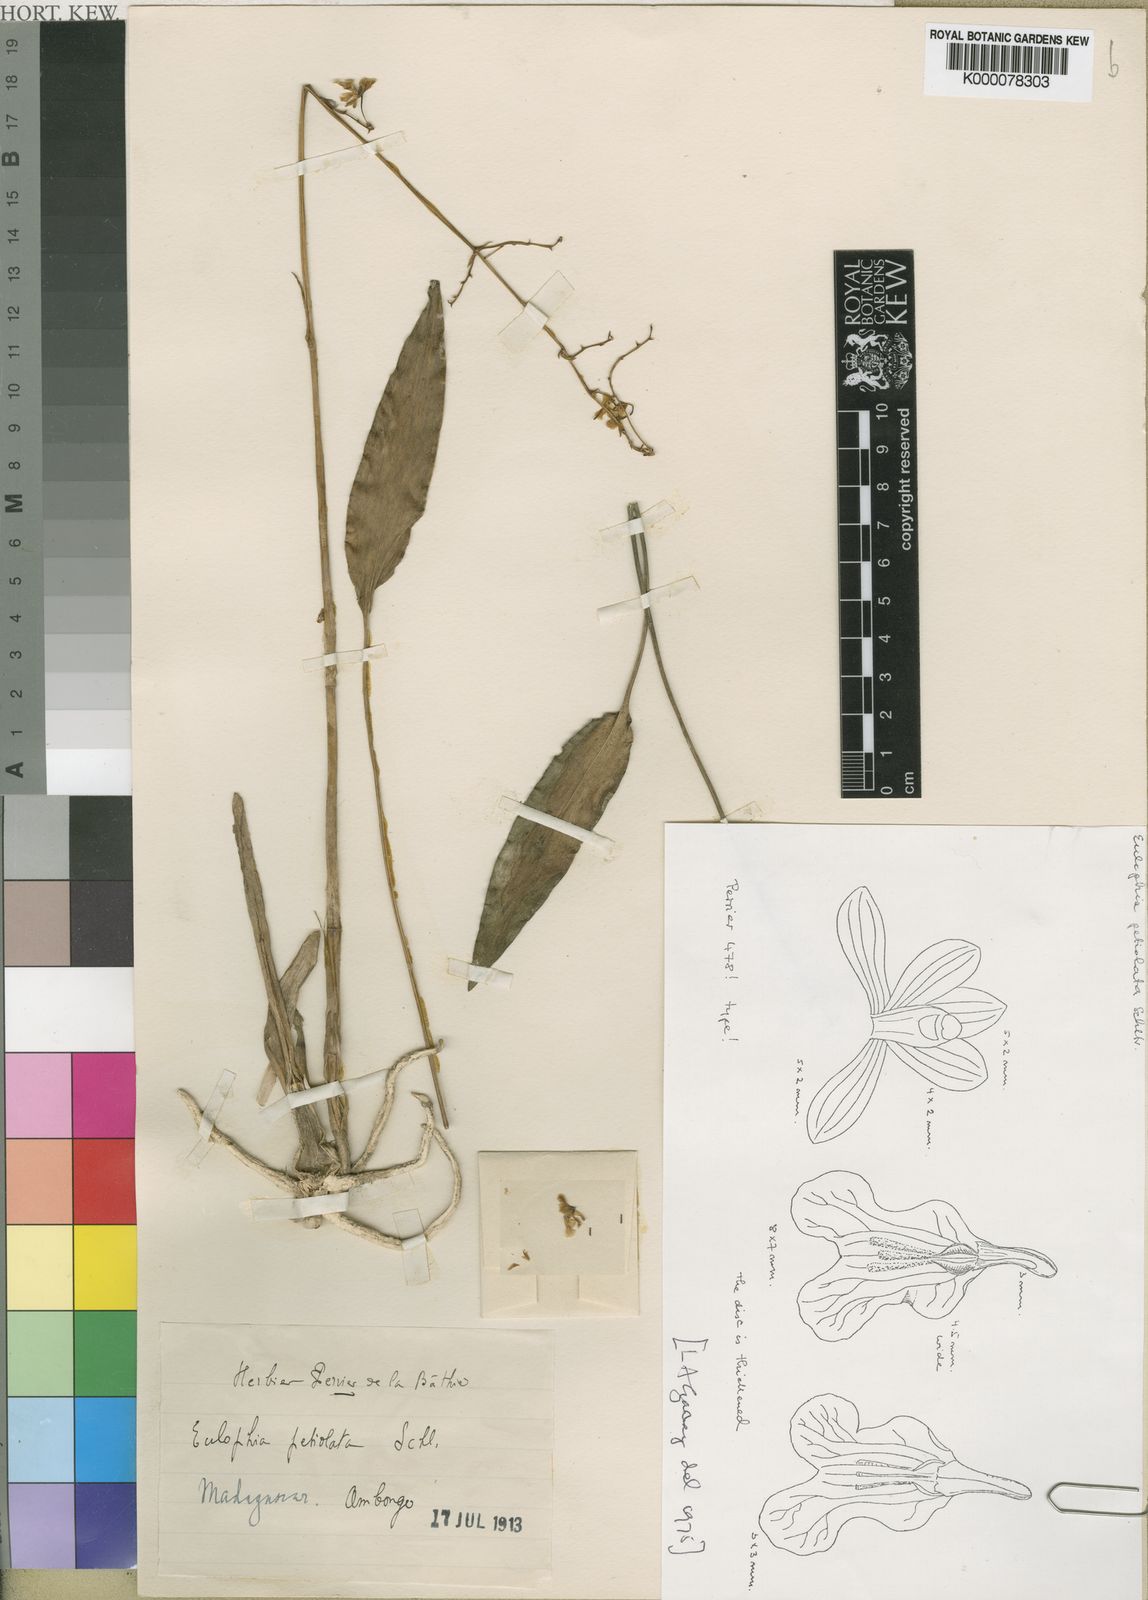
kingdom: Plantae
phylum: Tracheophyta
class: Liliopsida
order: Asparagales
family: Orchidaceae
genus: Eulophia
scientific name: Eulophia petiolata
